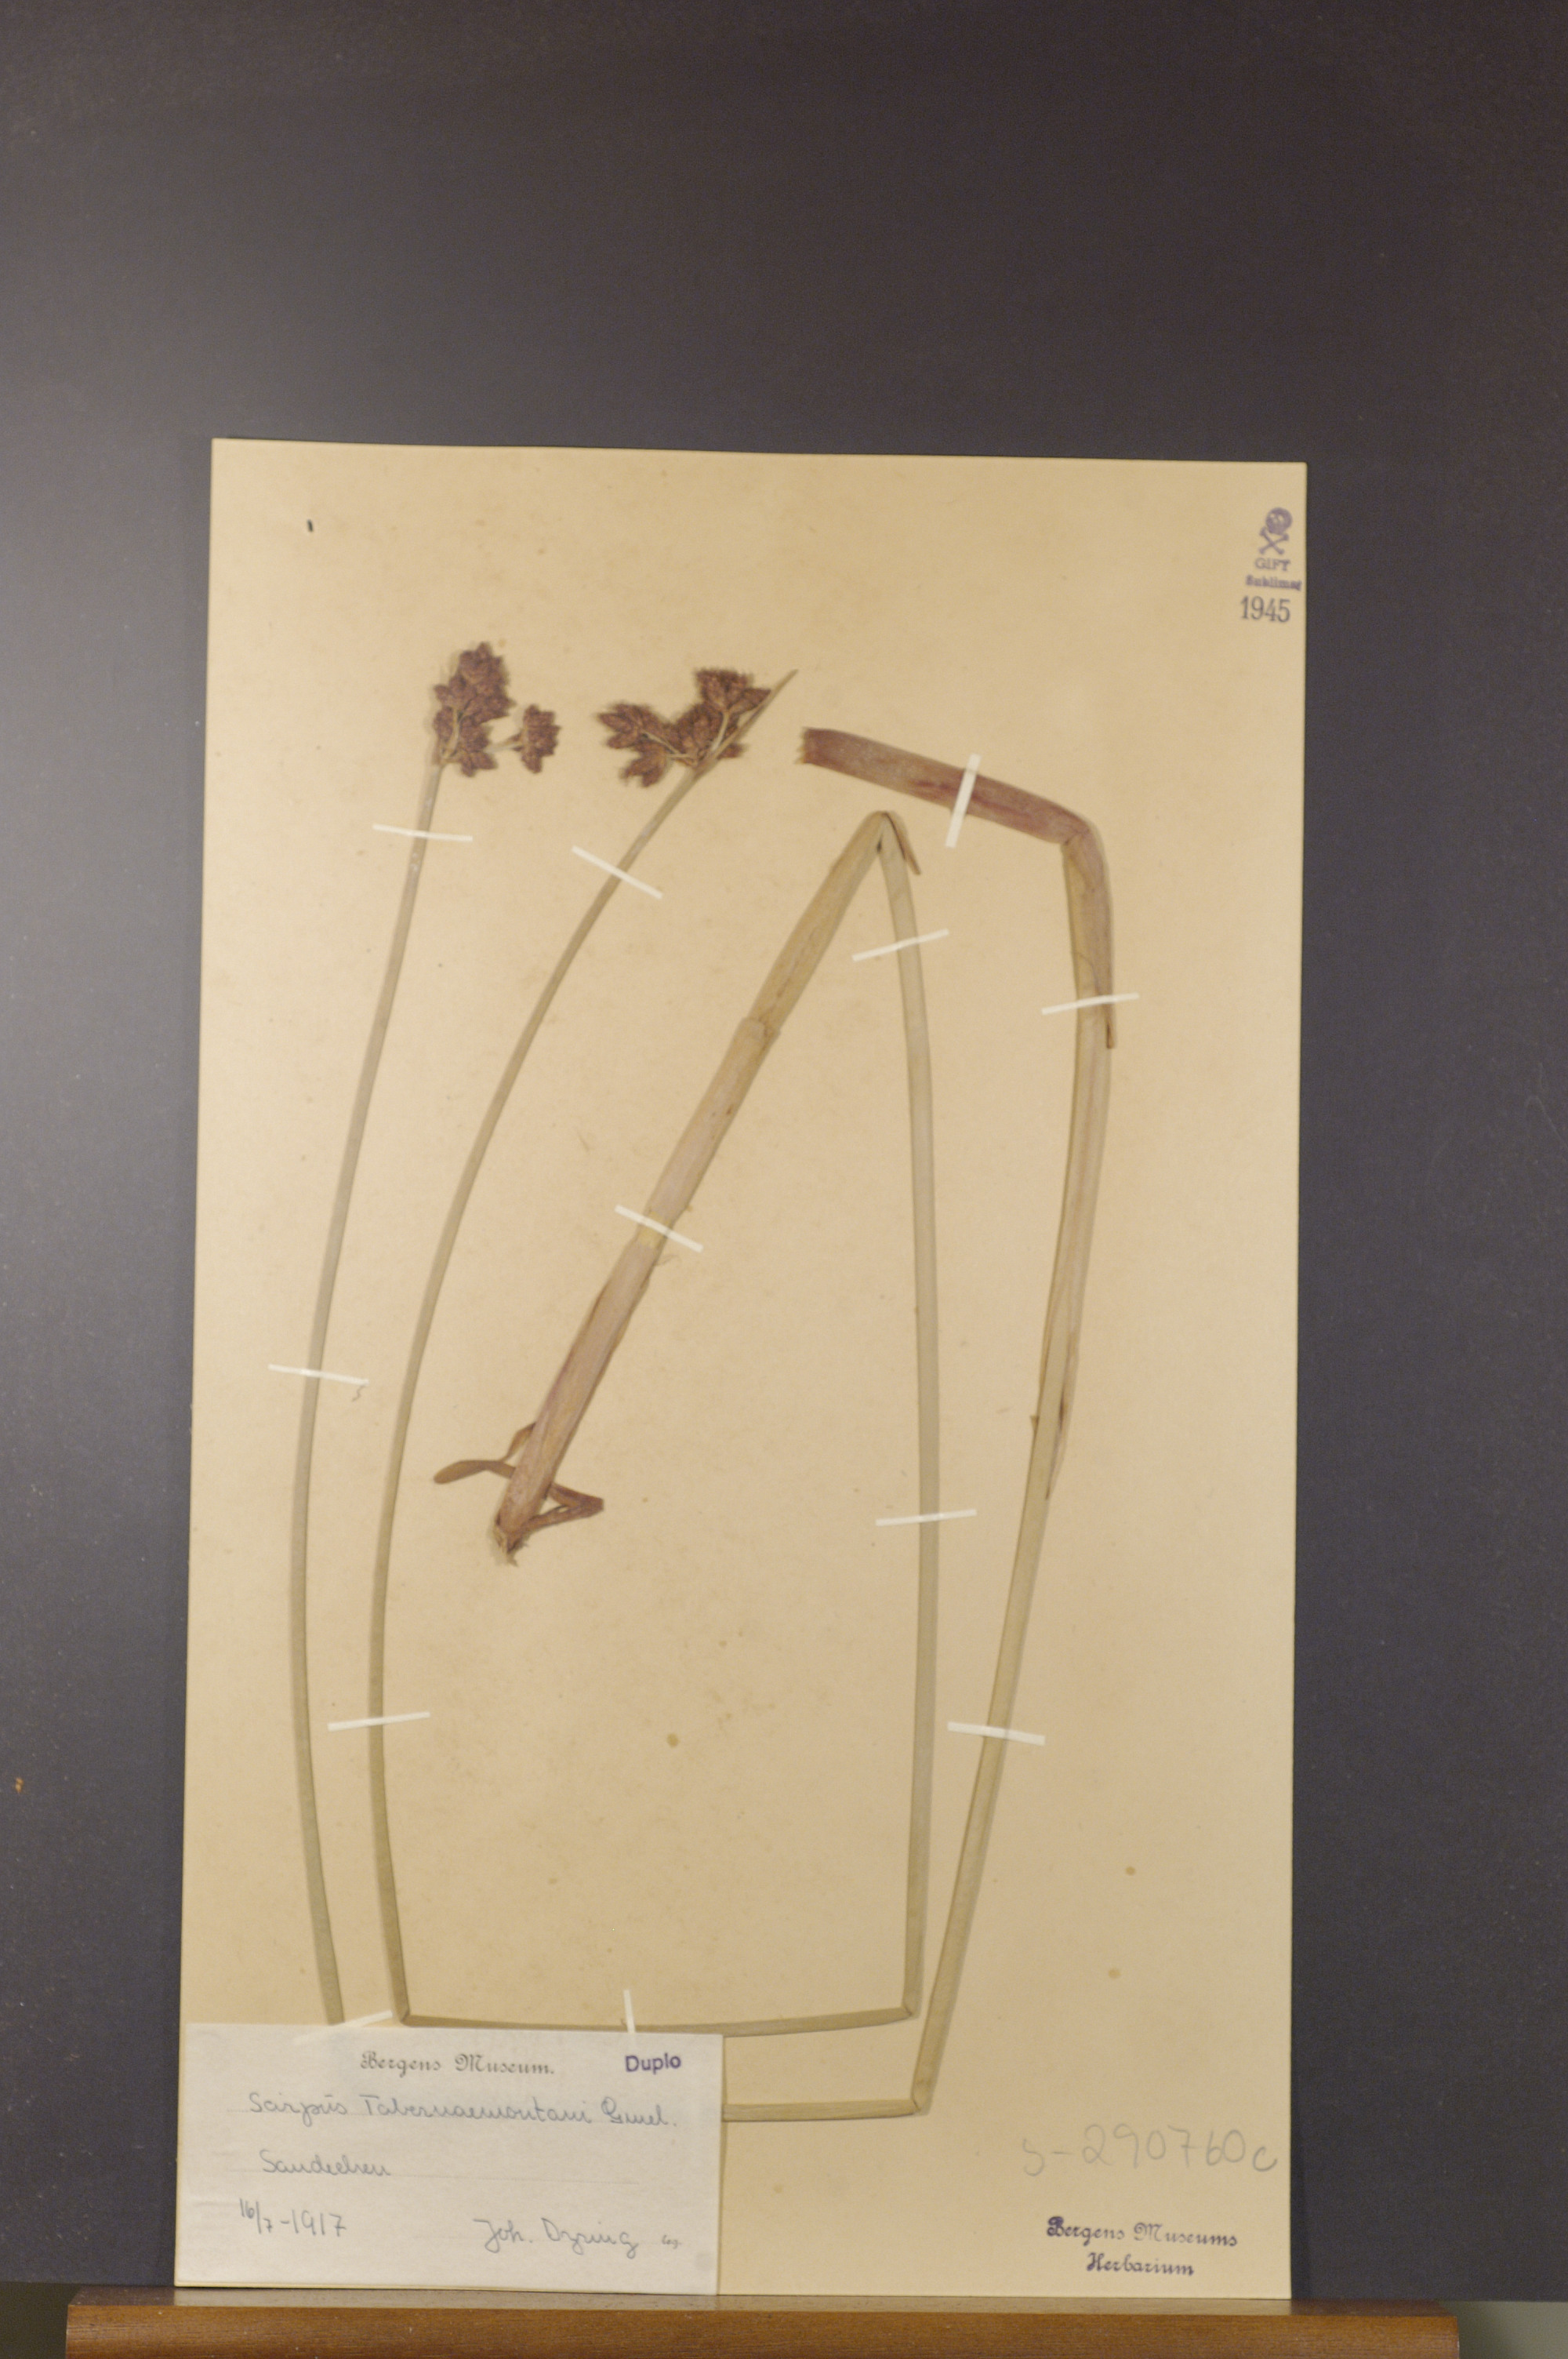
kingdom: Plantae
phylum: Tracheophyta
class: Liliopsida
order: Poales
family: Cyperaceae
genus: Schoenoplectus
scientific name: Schoenoplectus tabernaemontani
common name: Grey club-rush
